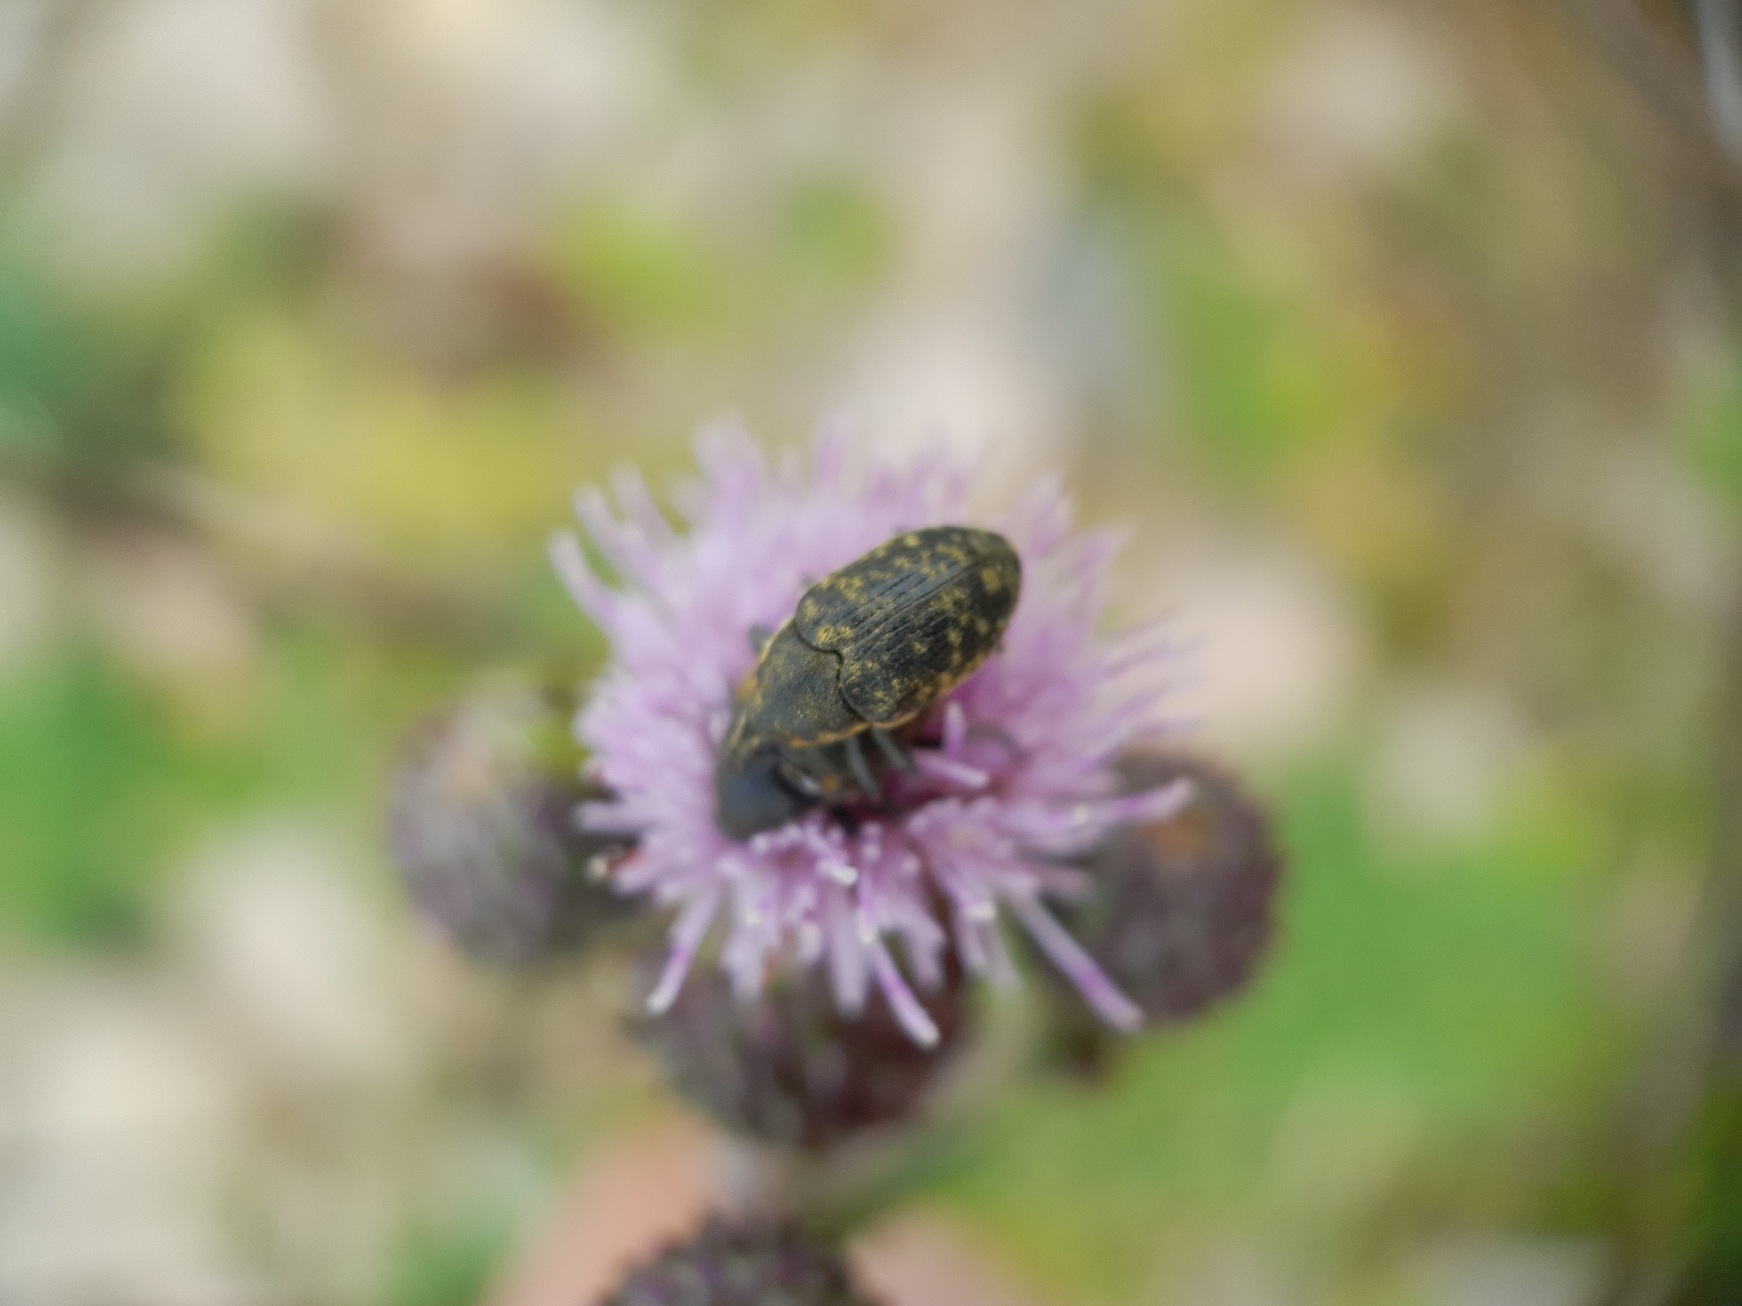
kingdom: Animalia
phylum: Arthropoda
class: Insecta
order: Coleoptera
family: Curculionidae
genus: Larinus
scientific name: Larinus turbinatus
